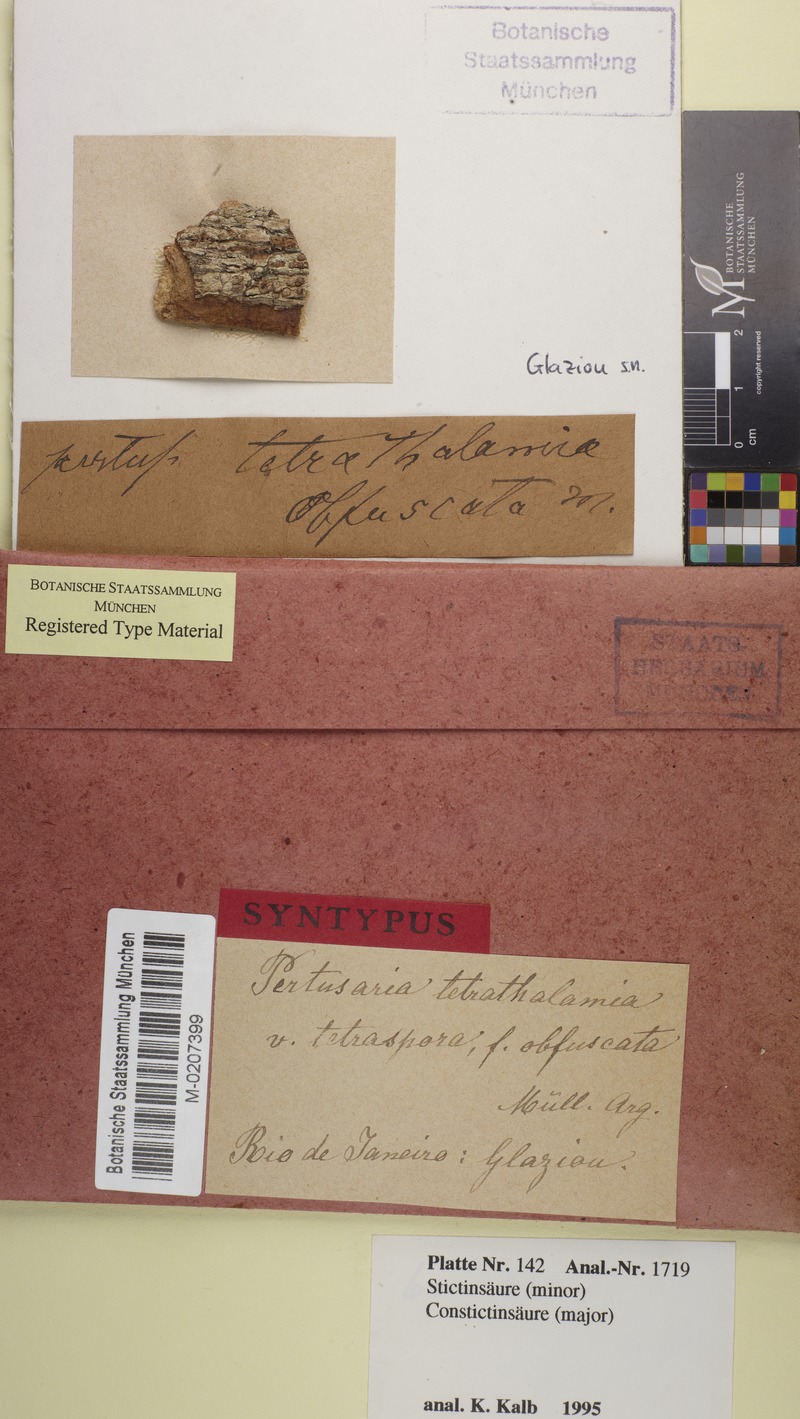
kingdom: Fungi
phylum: Ascomycota
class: Lecanoromycetes
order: Pertusariales
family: Pertusariaceae
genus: Pertusaria
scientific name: Pertusaria tetrathalamia
